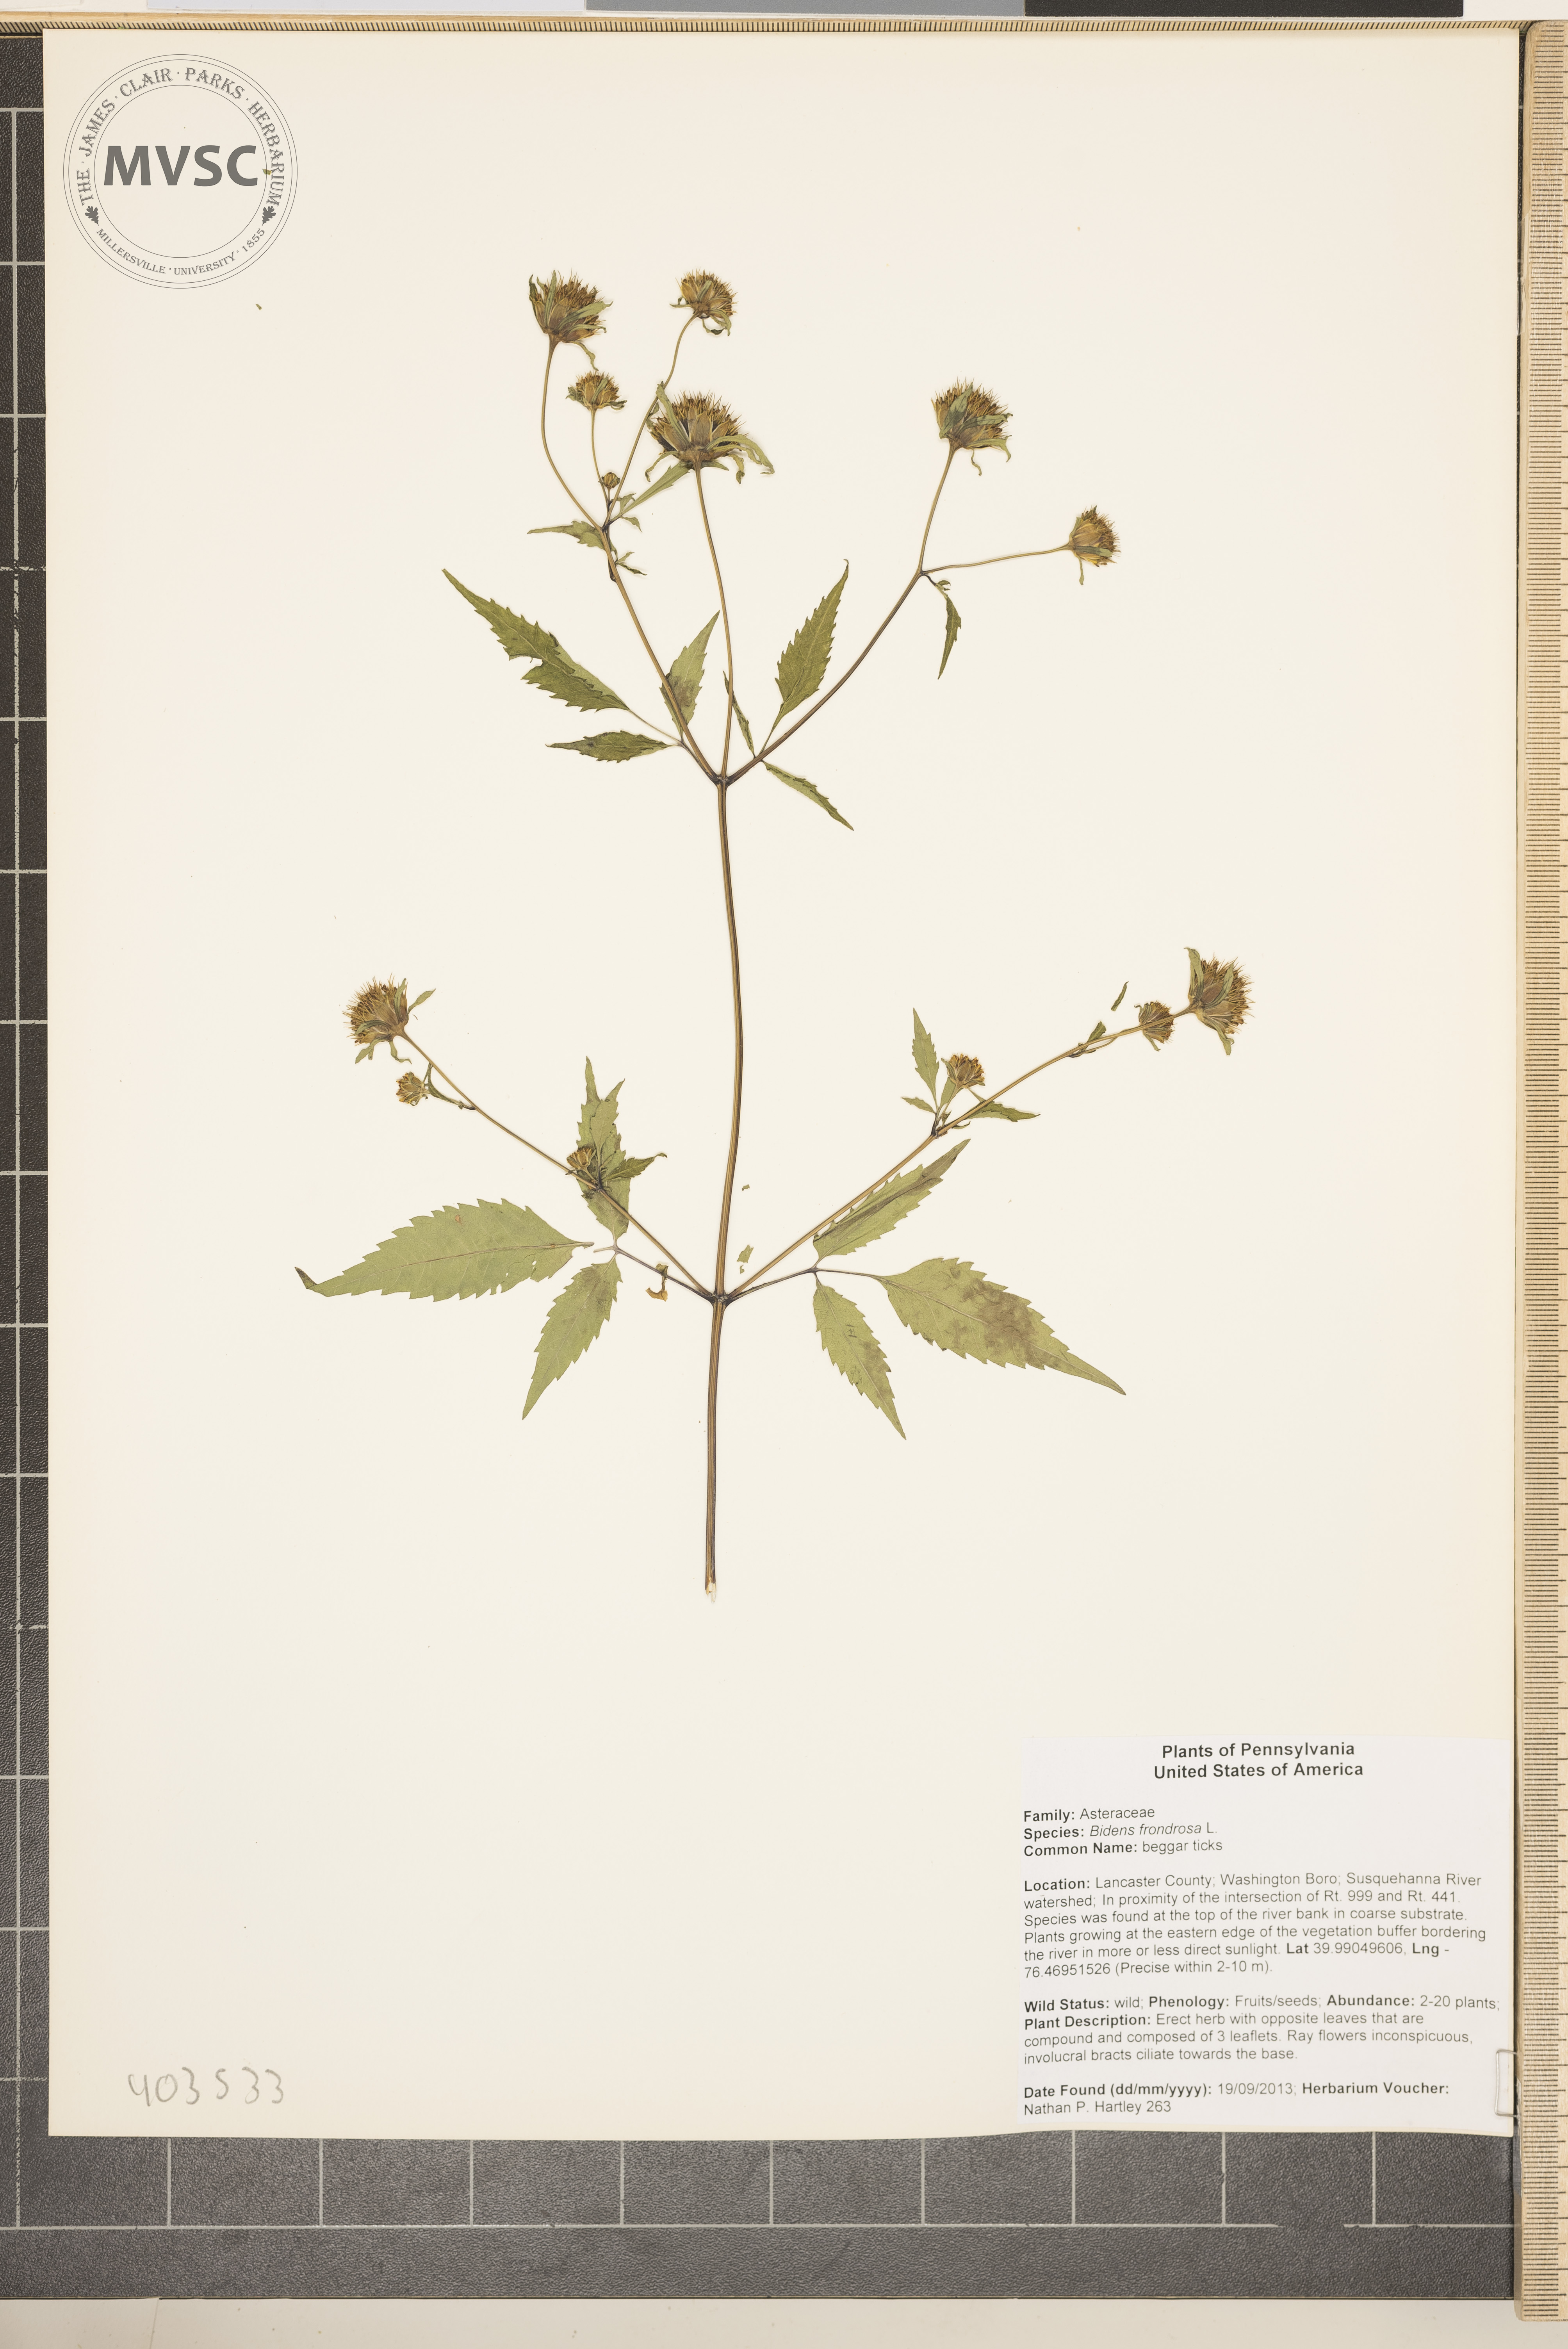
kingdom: Plantae
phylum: Tracheophyta
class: Magnoliopsida
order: Asterales
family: Asteraceae
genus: Bidens
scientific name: Bidens frondosa
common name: Beggarticks
